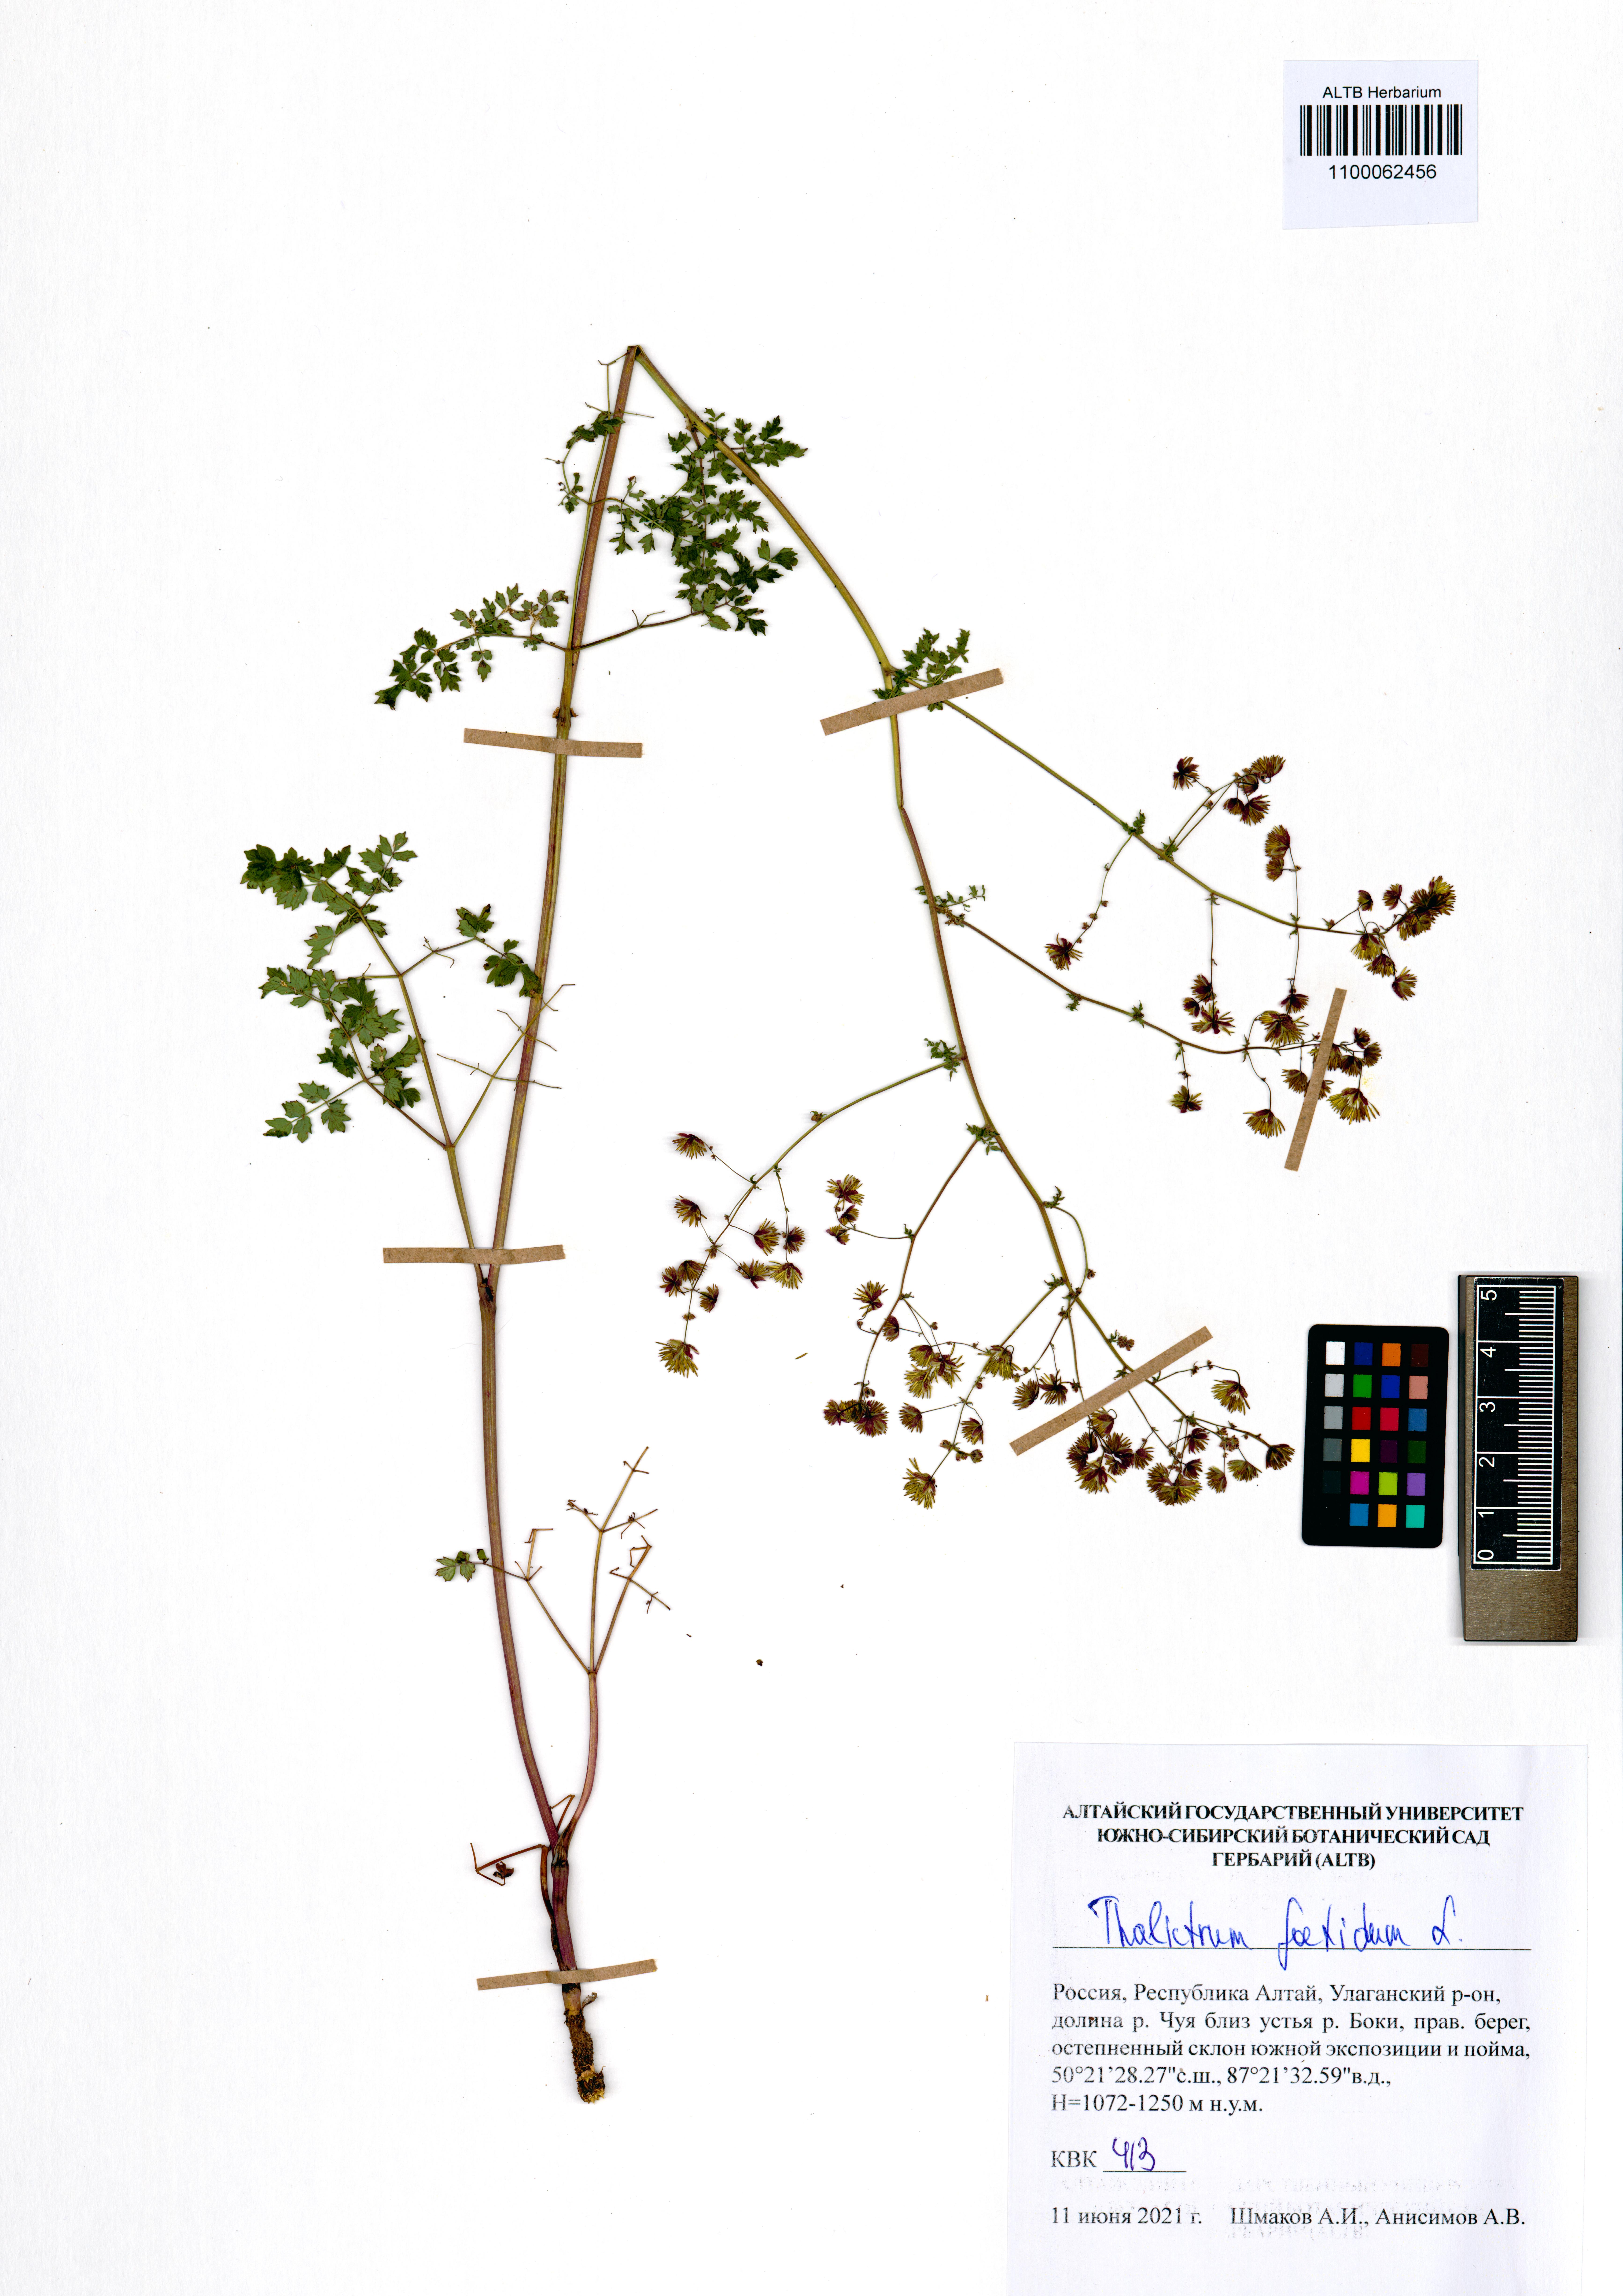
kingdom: Plantae
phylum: Tracheophyta
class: Magnoliopsida
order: Ranunculales
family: Ranunculaceae
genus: Thalictrum
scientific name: Thalictrum foetidum
